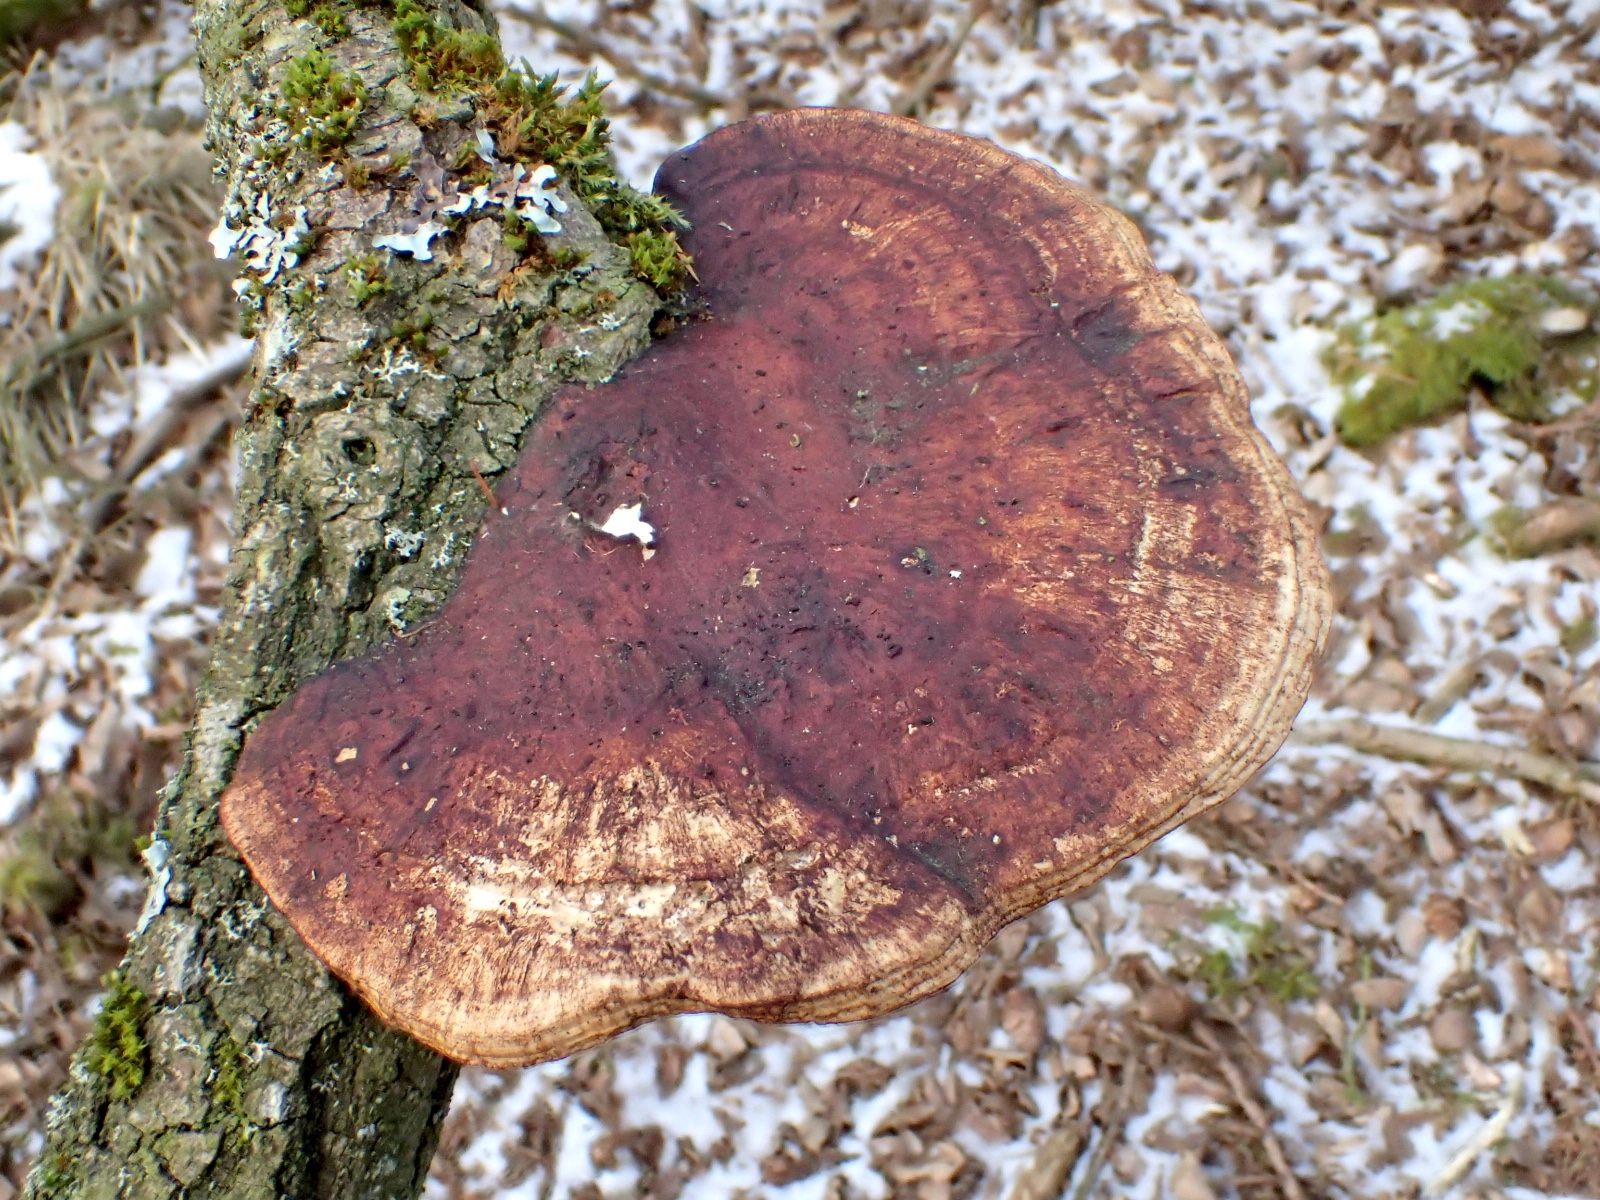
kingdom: Fungi
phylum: Basidiomycota
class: Agaricomycetes
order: Polyporales
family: Polyporaceae
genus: Daedaleopsis
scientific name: Daedaleopsis confragosa
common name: rødmende læderporesvamp
